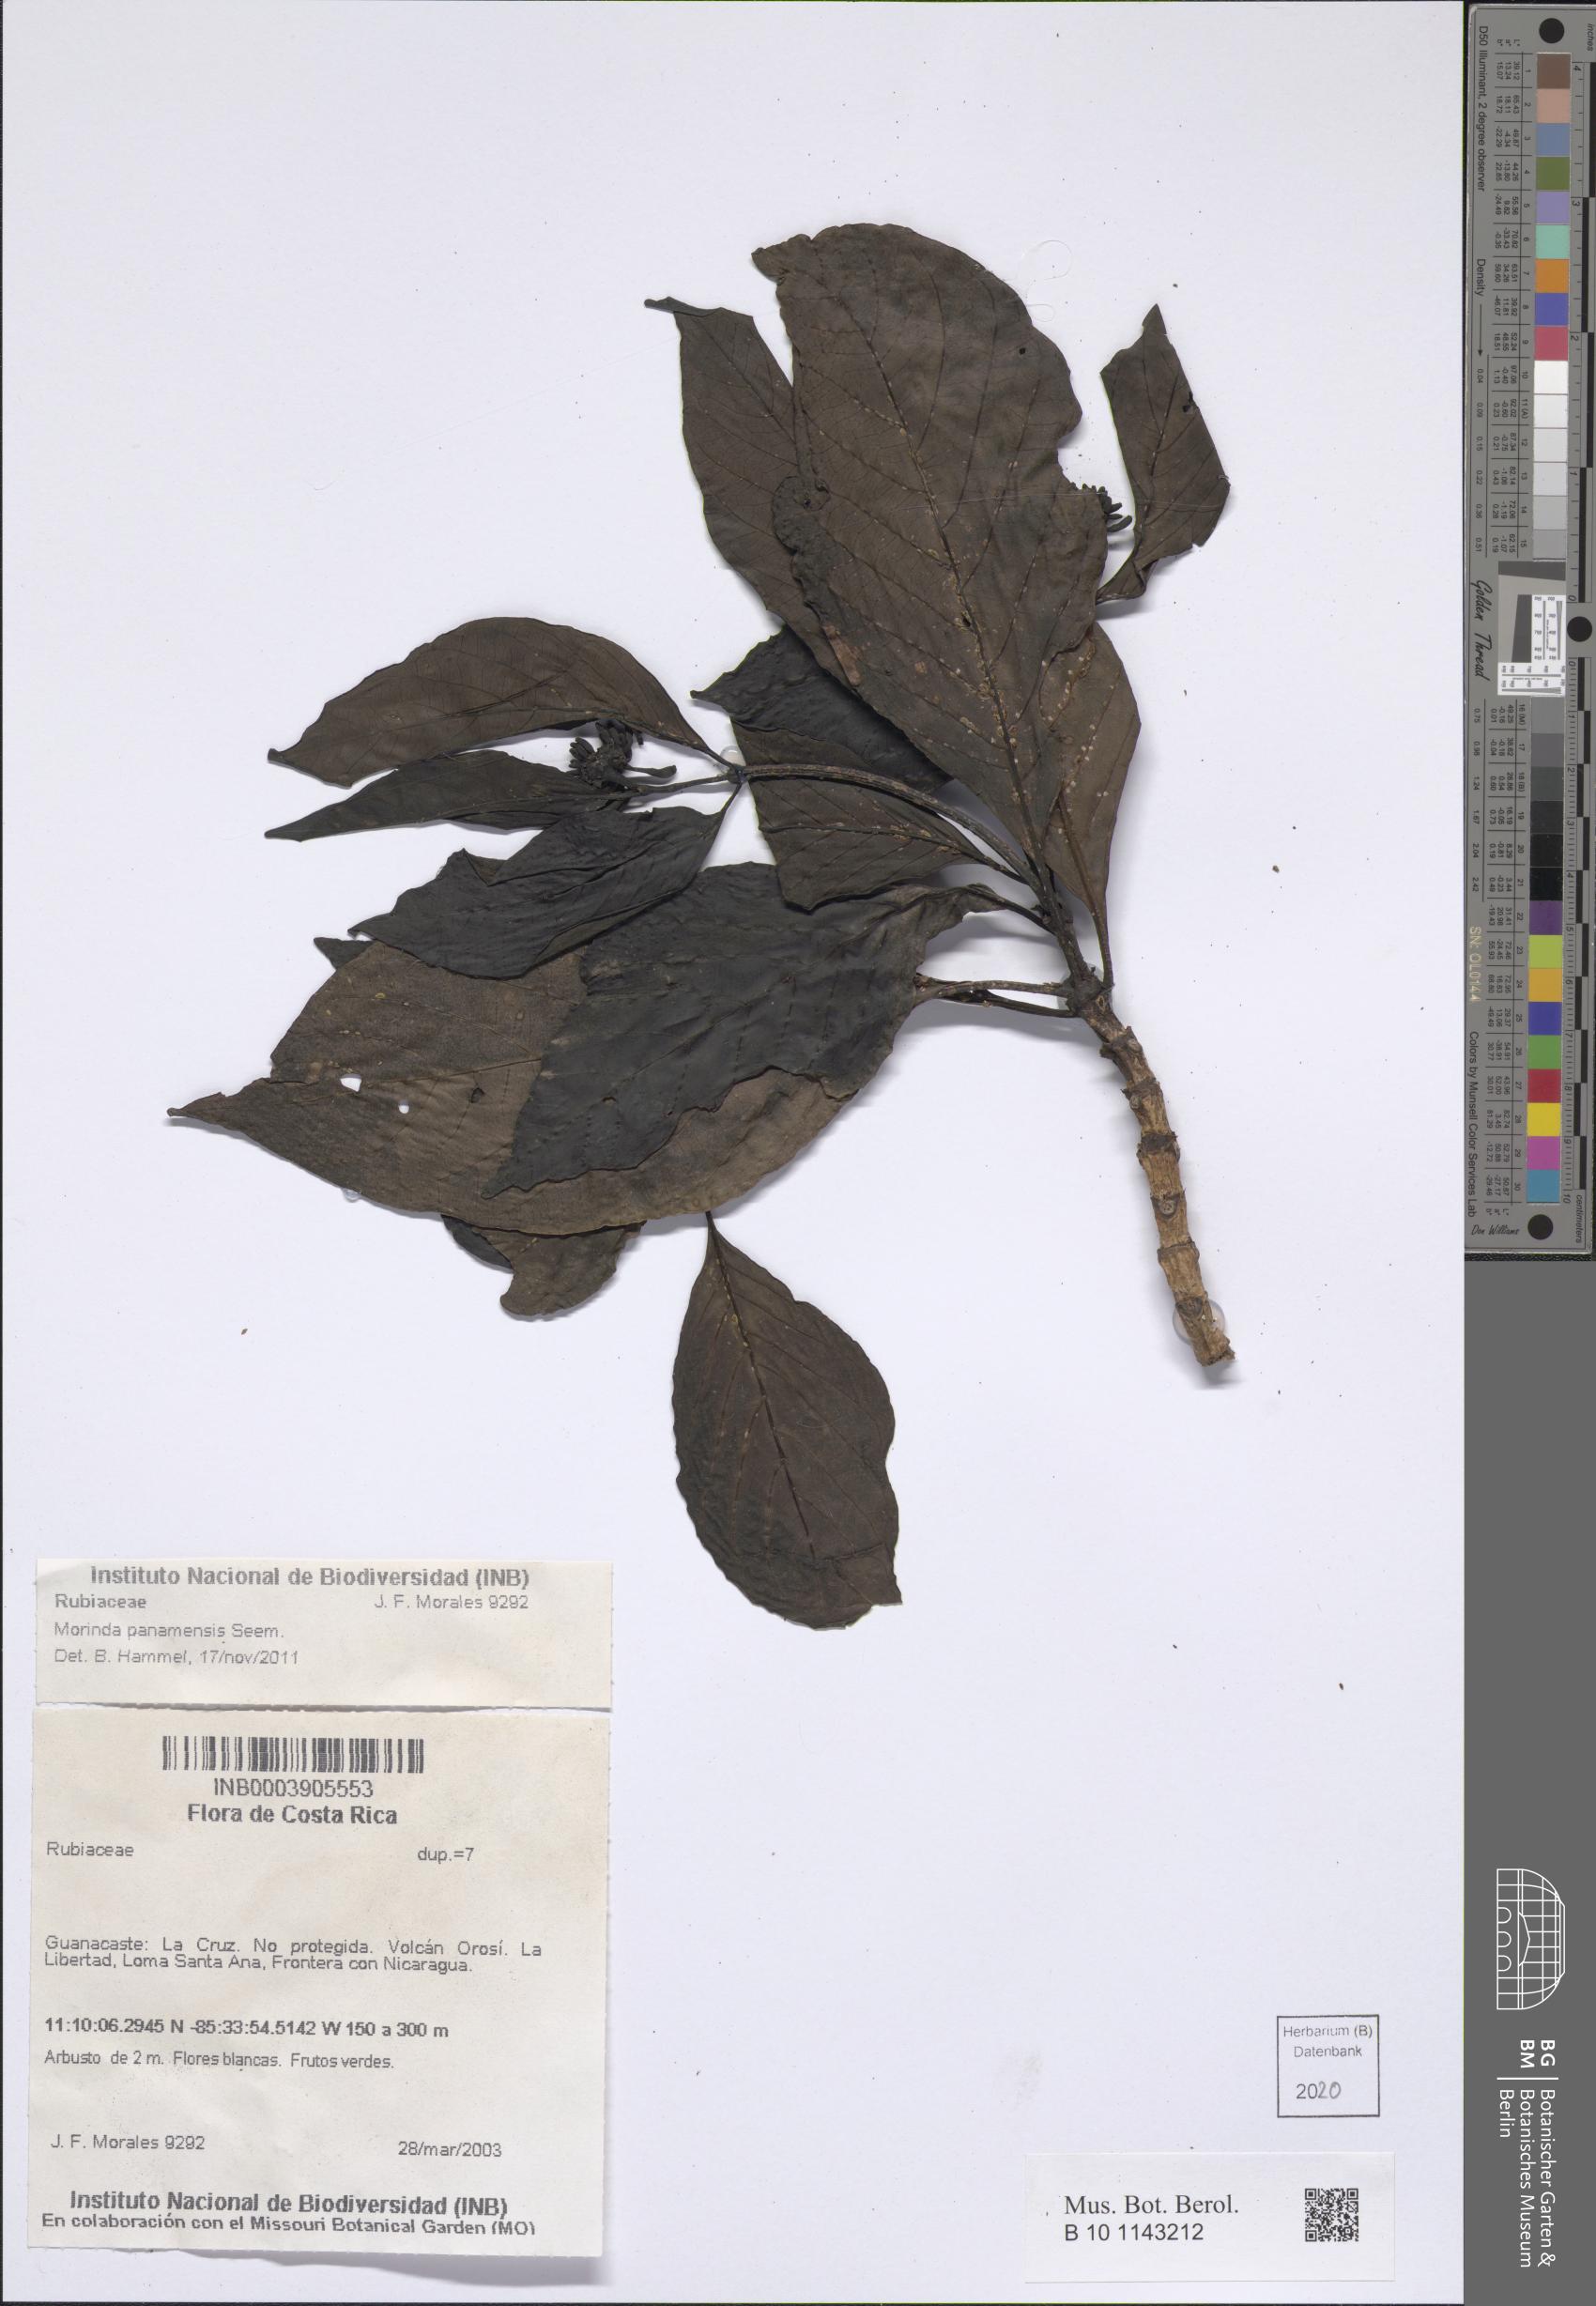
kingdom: Plantae
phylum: Tracheophyta
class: Magnoliopsida
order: Gentianales
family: Rubiaceae
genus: Morinda
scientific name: Morinda panamensis
